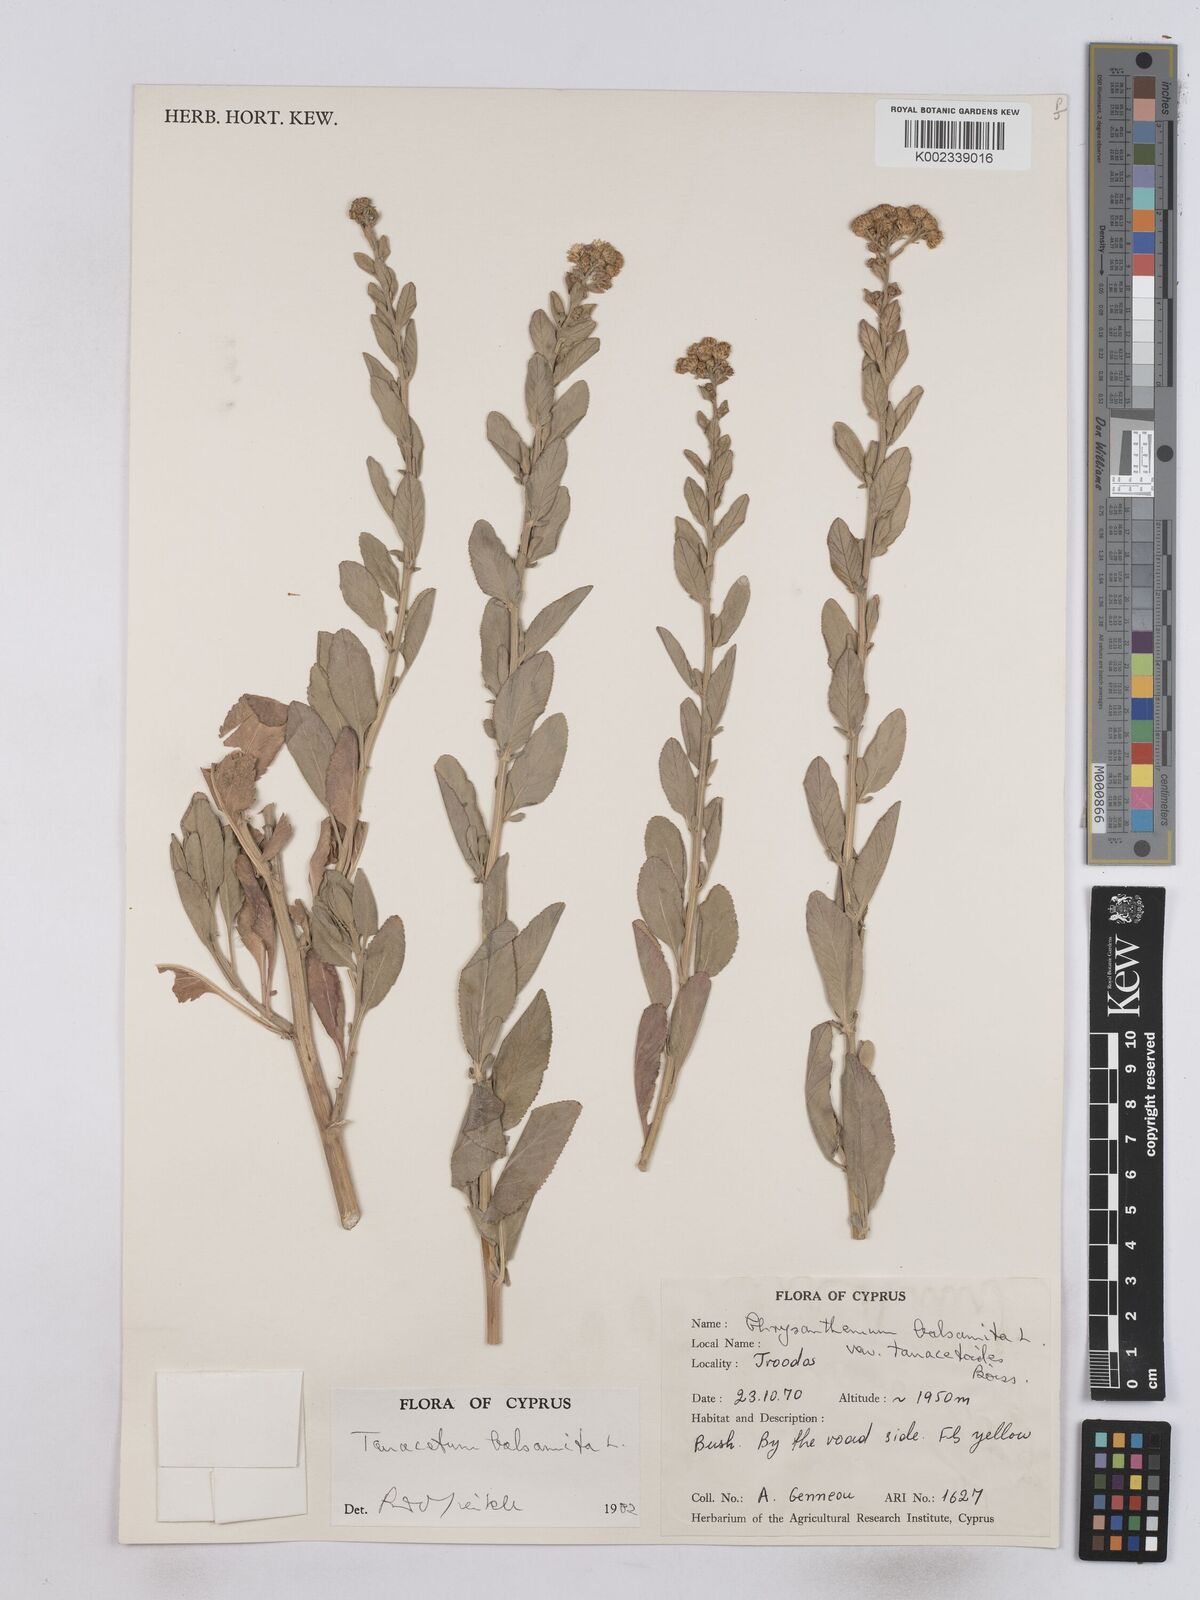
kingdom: Plantae
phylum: Tracheophyta
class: Magnoliopsida
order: Asterales
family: Asteraceae
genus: Tanacetum
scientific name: Tanacetum balsamita
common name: Costmary
